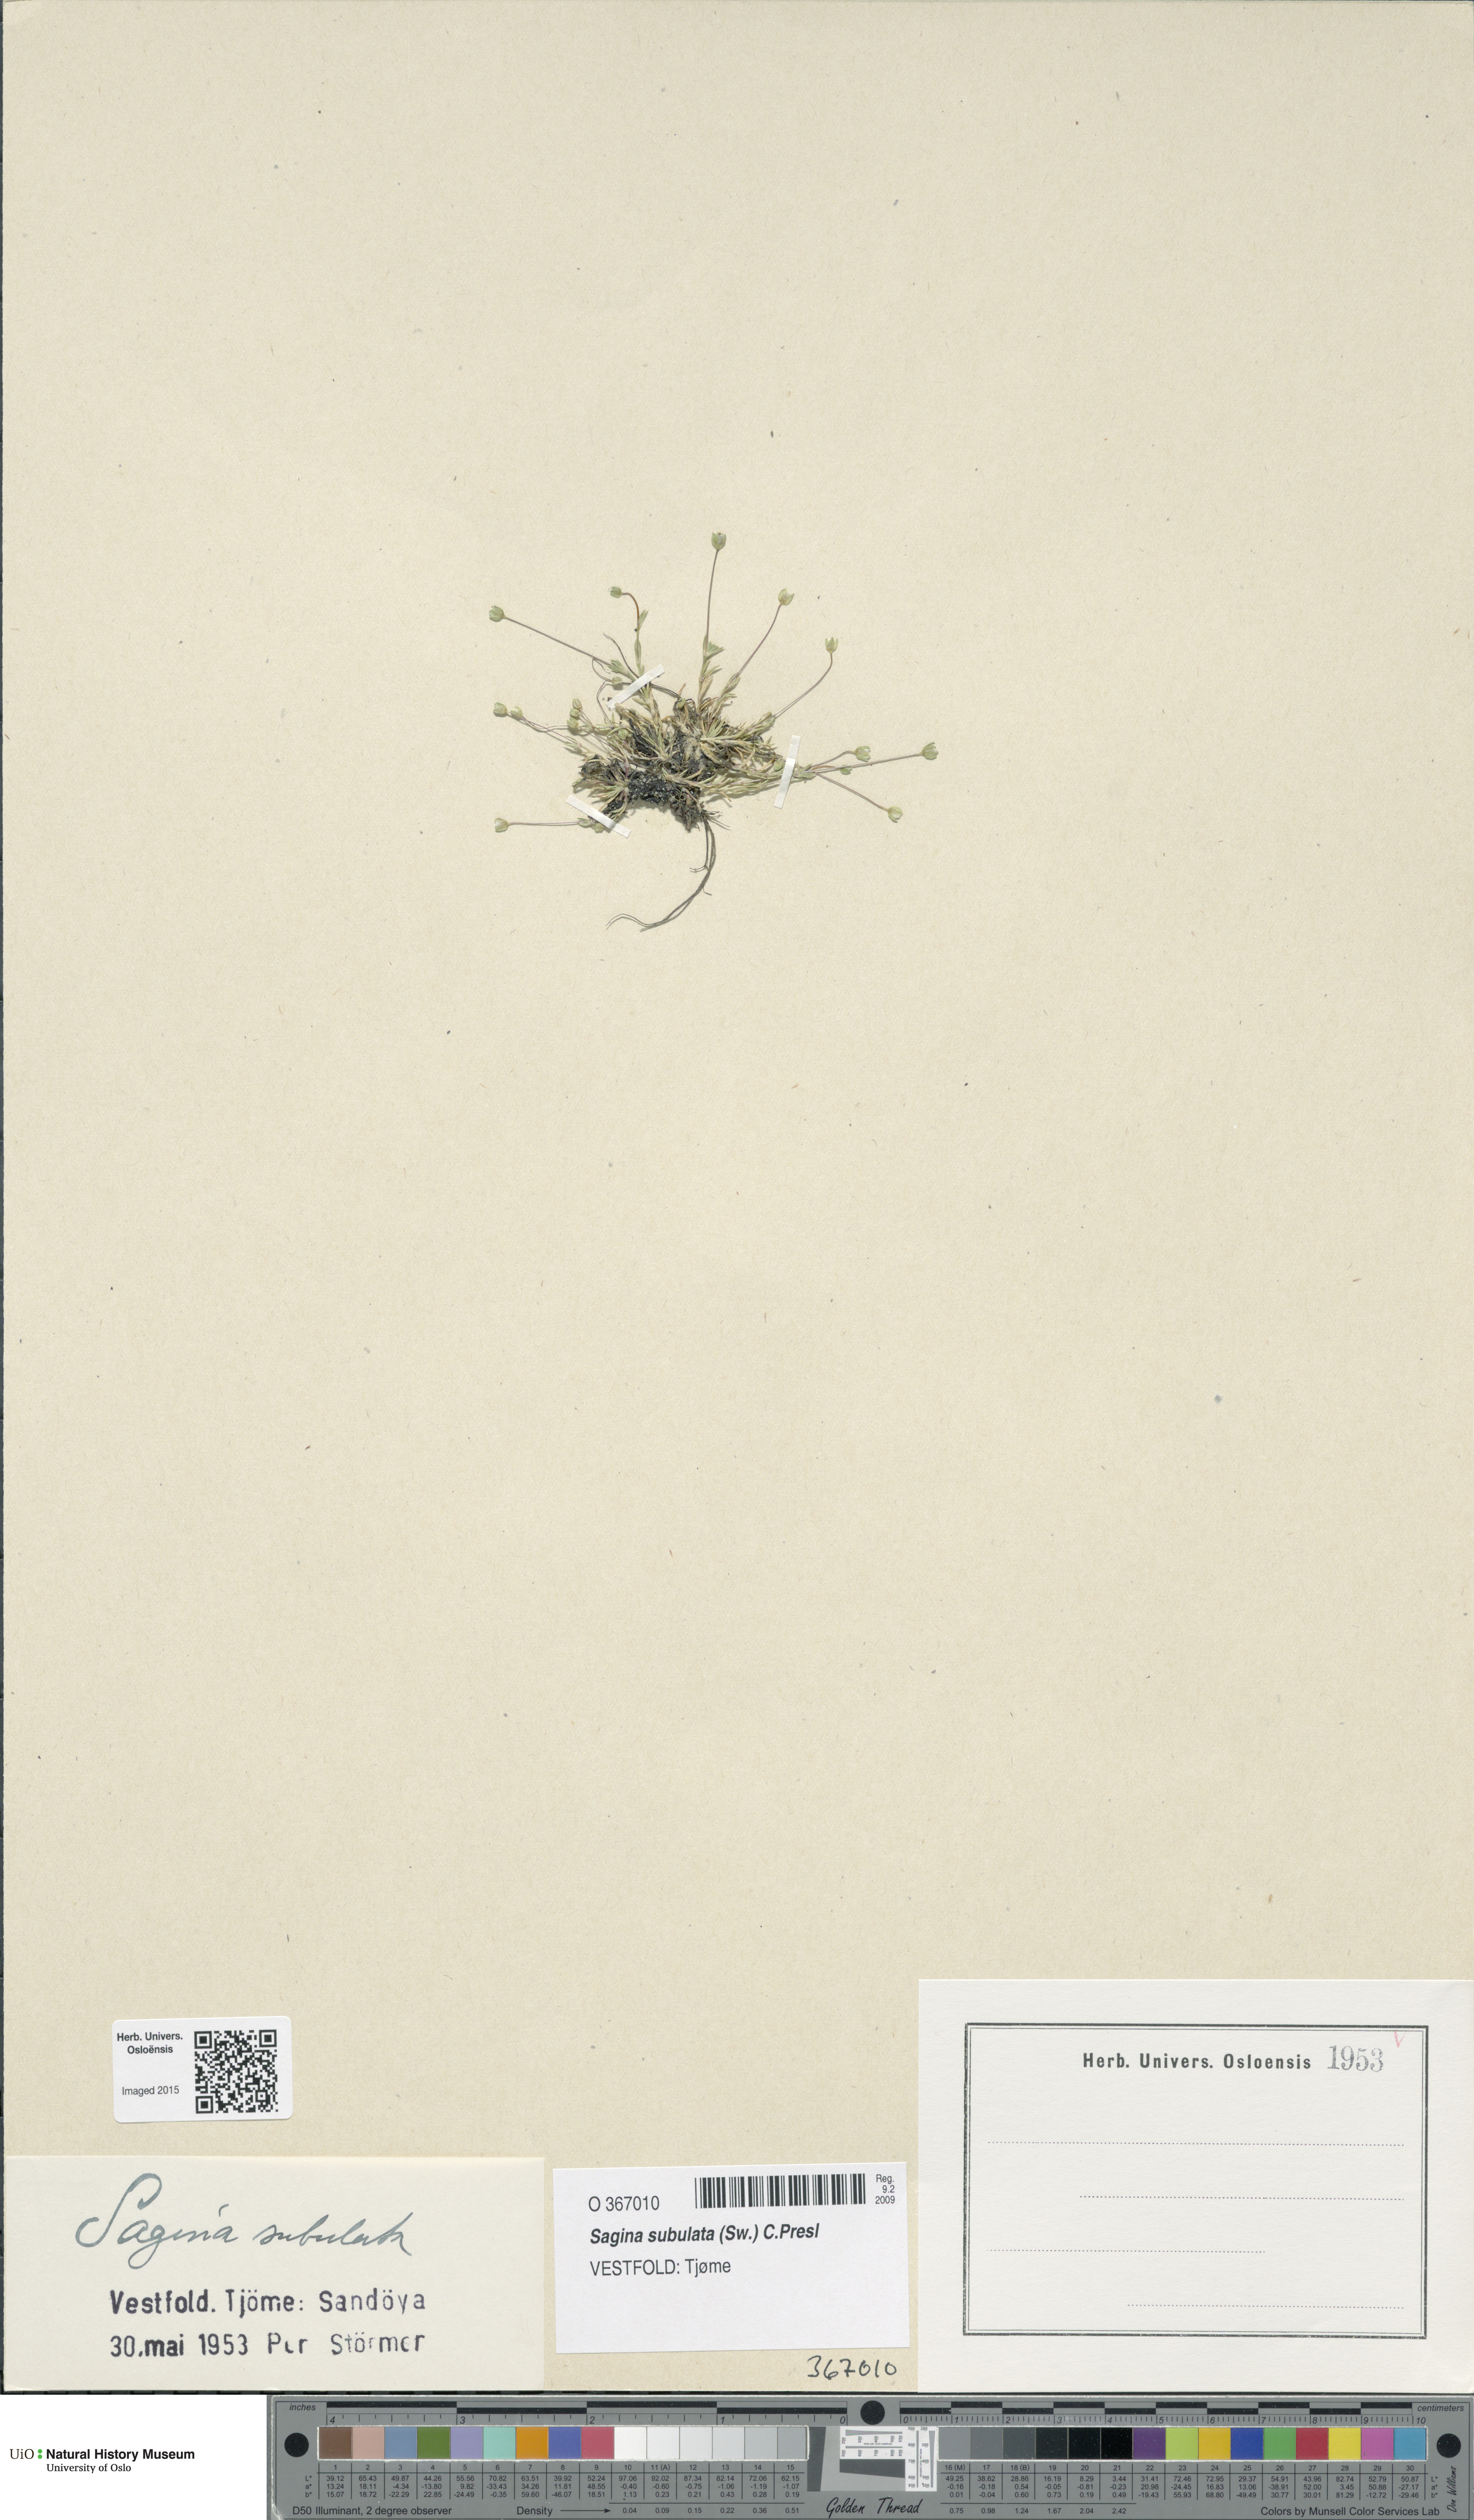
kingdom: Plantae
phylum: Tracheophyta
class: Magnoliopsida
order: Caryophyllales
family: Caryophyllaceae
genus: Sagina
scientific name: Sagina alexandrae
